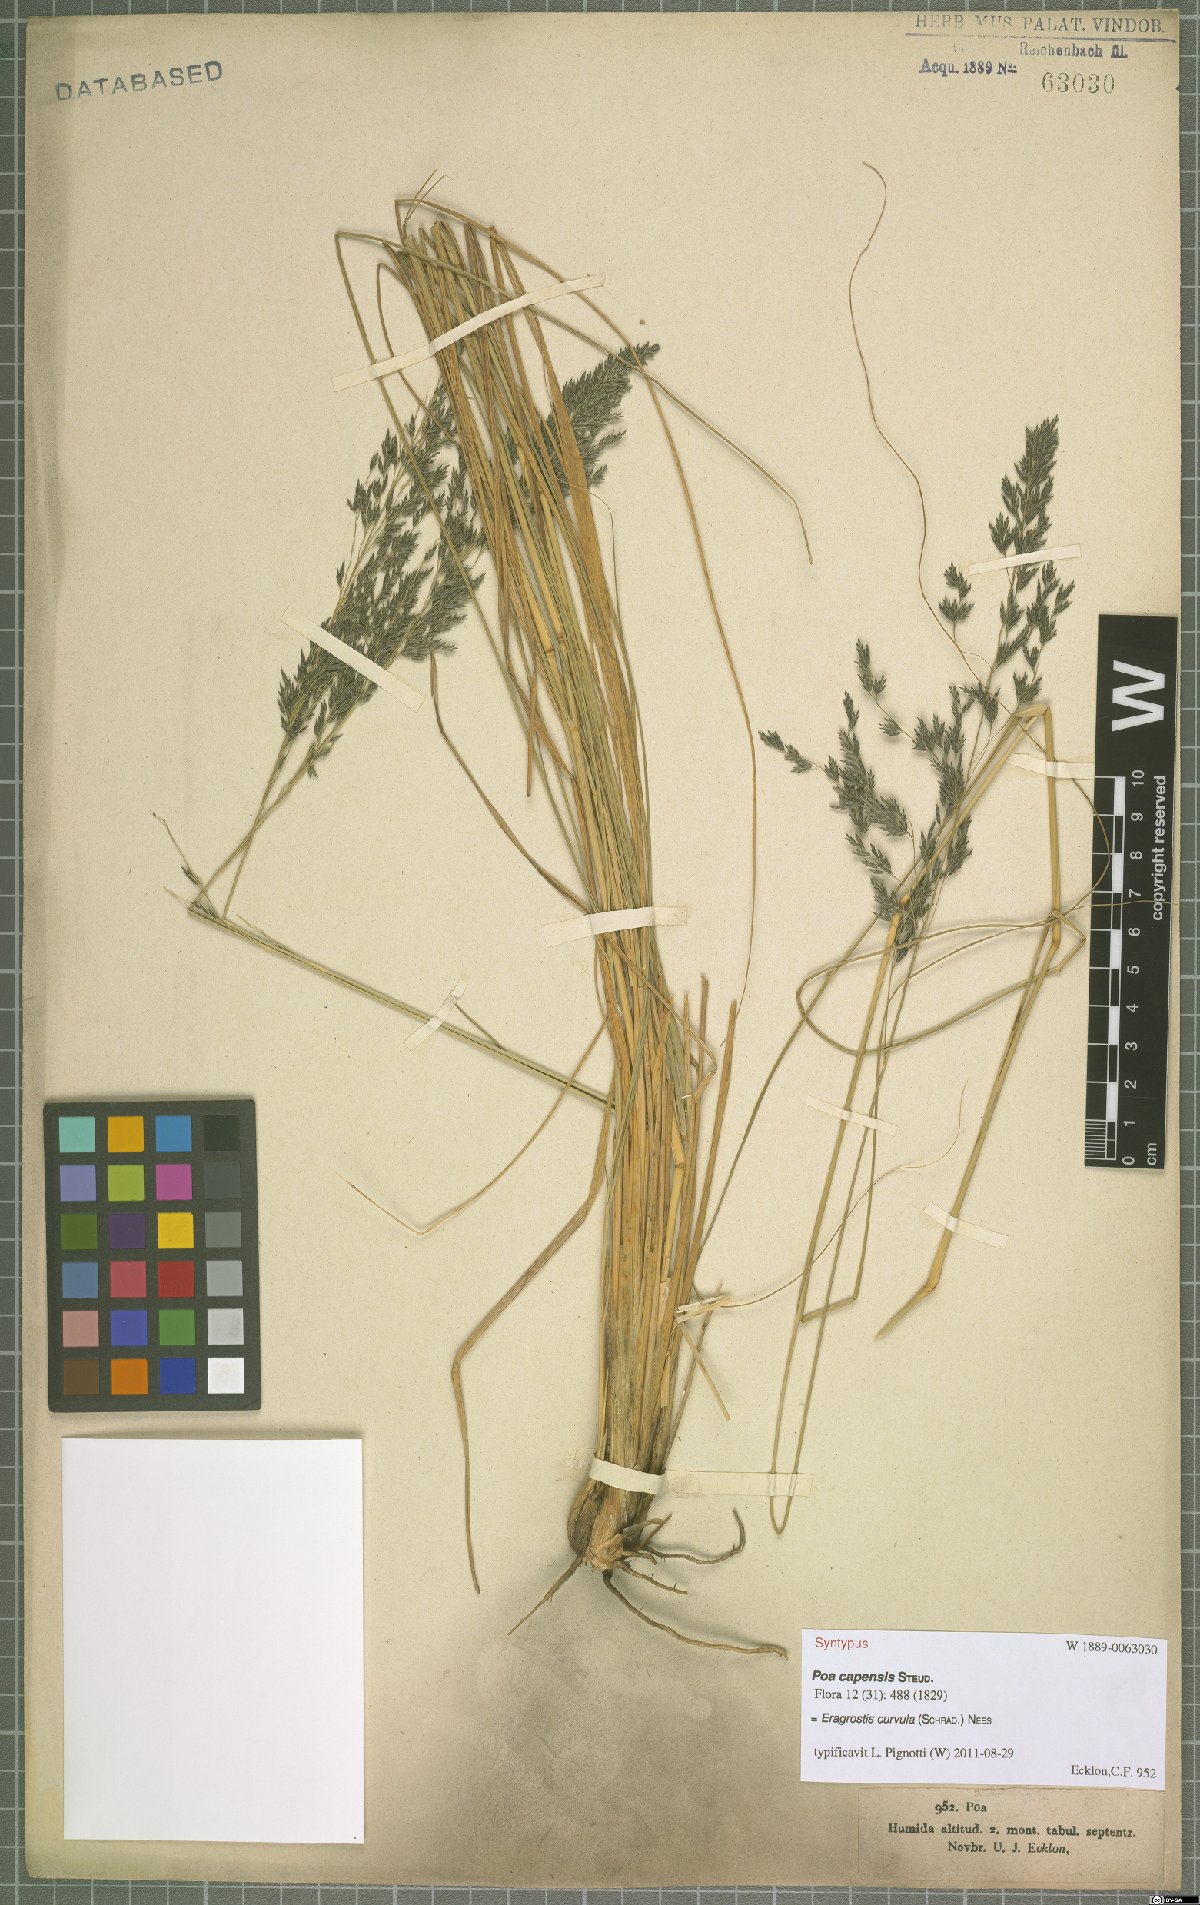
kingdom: Plantae
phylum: Tracheophyta
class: Liliopsida
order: Poales
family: Poaceae
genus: Eragrostis
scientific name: Eragrostis curvula
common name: African love-grass
